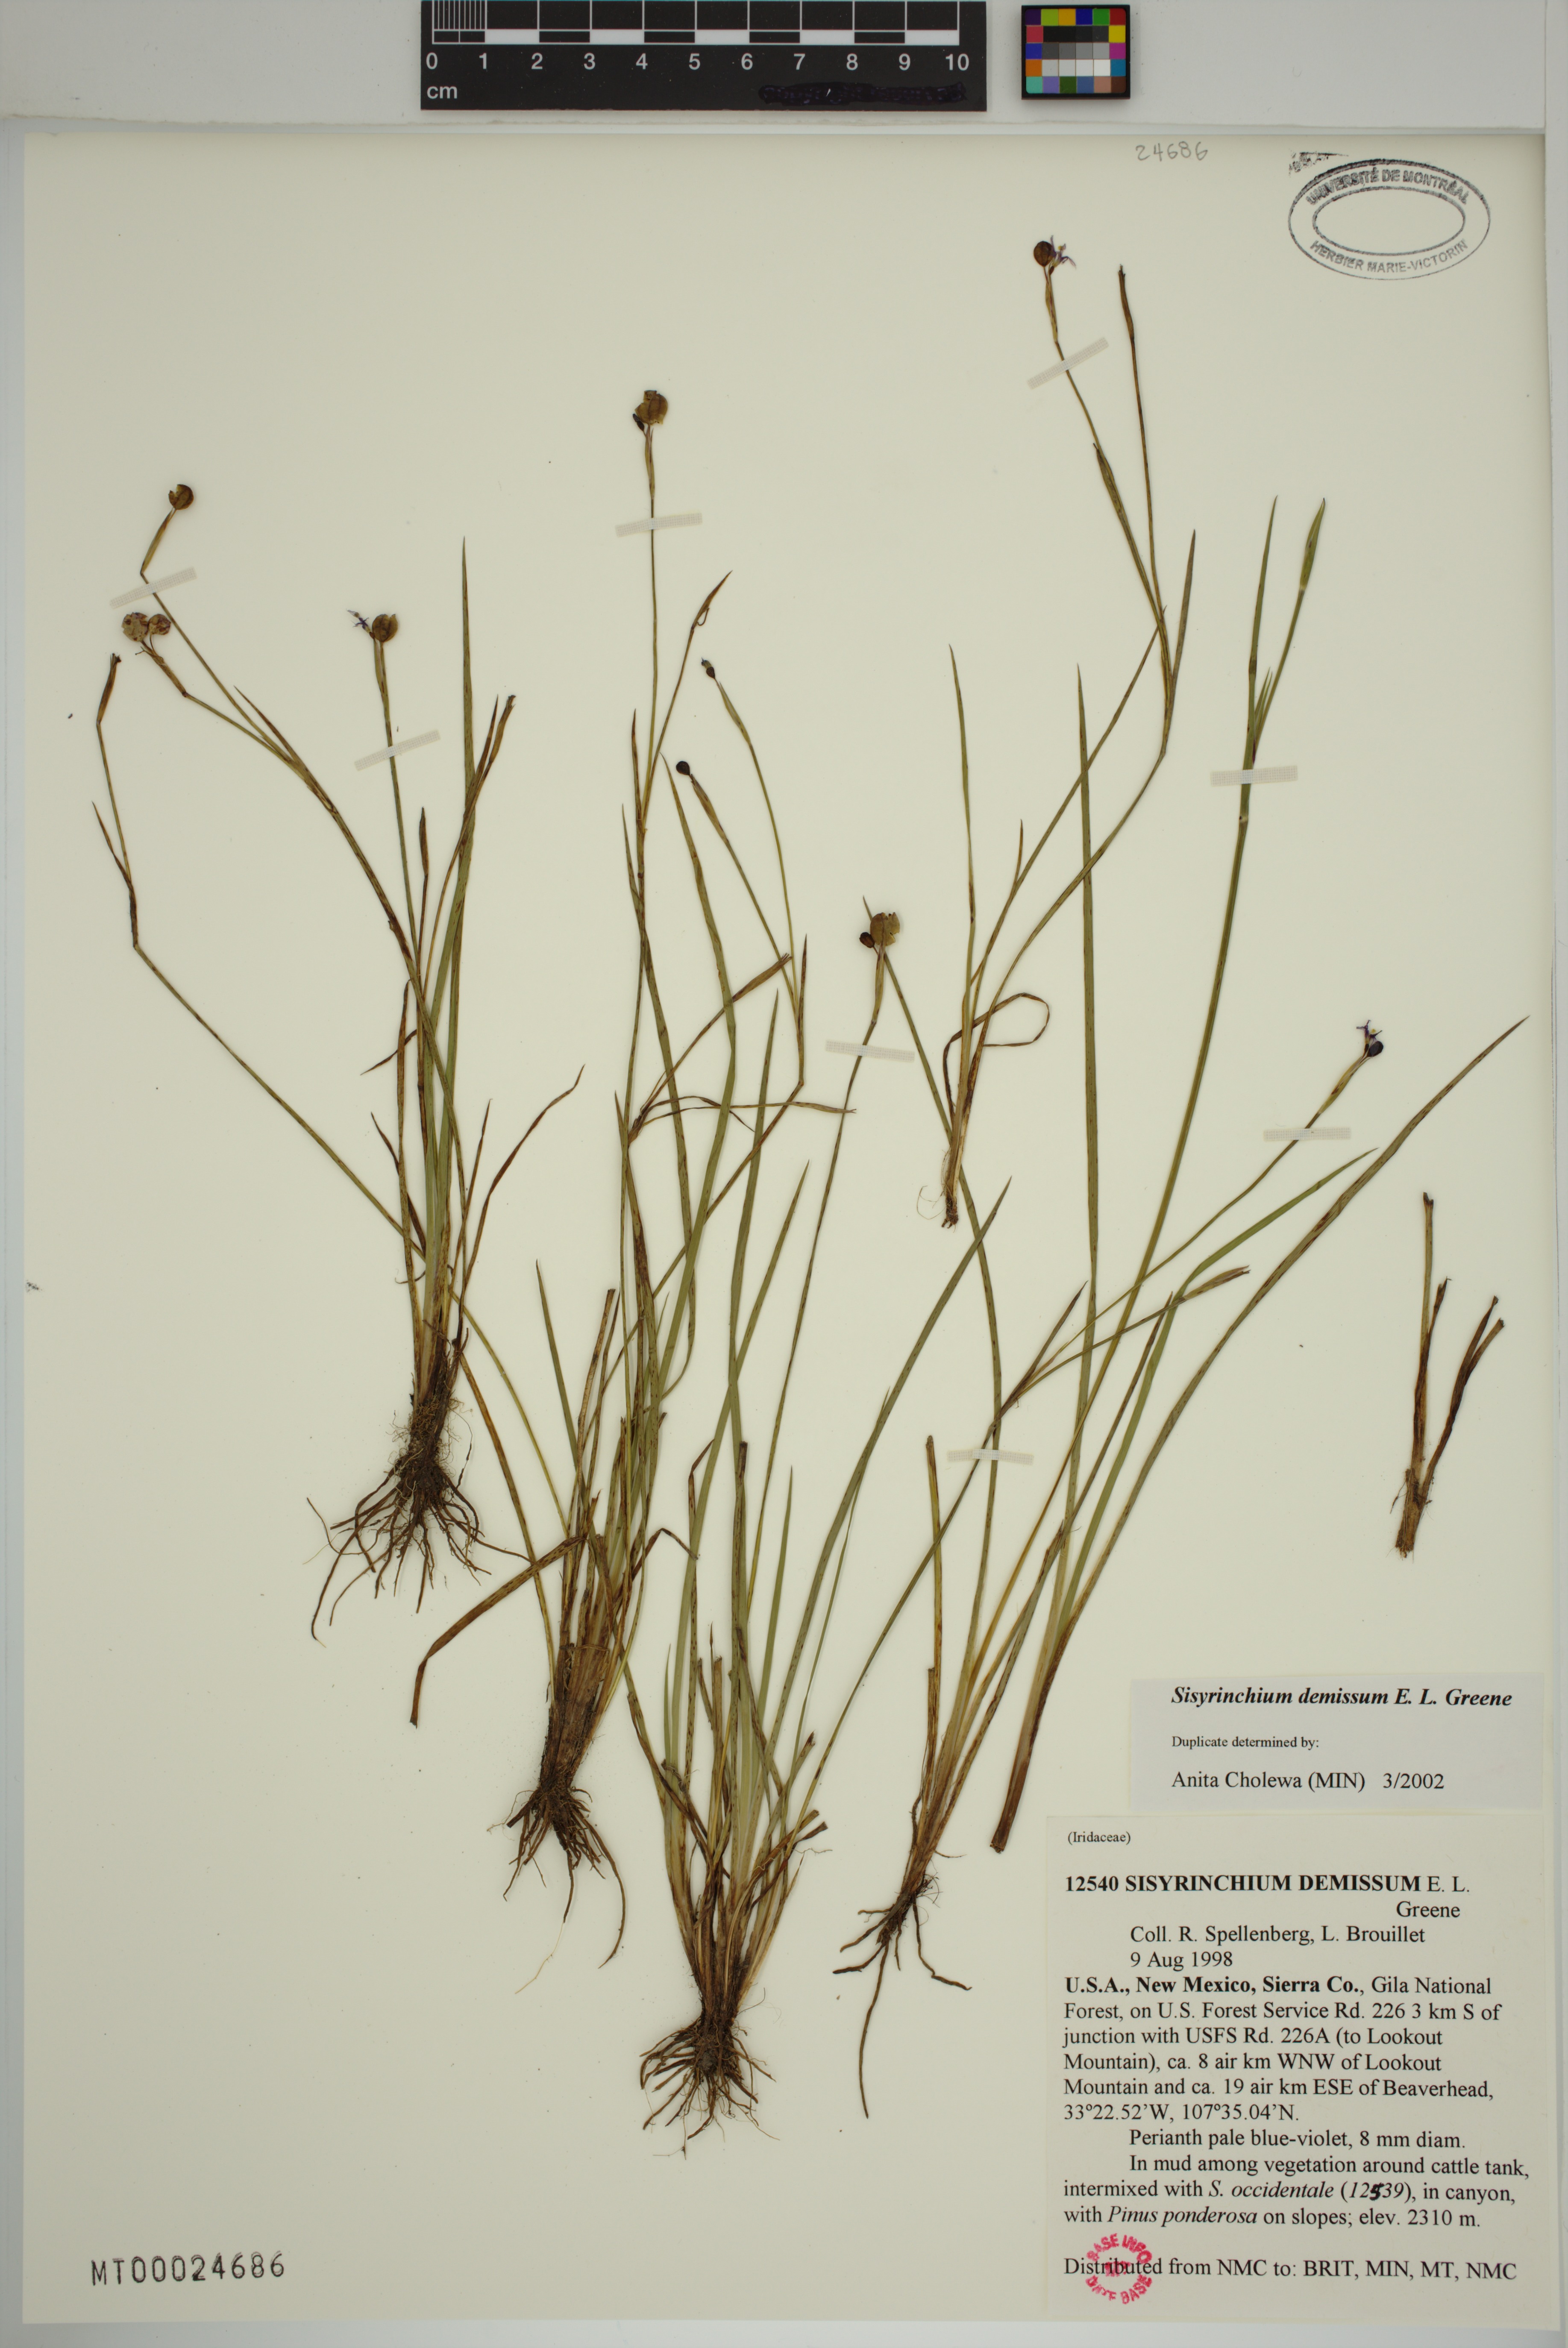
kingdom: Plantae
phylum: Tracheophyta
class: Liliopsida
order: Asparagales
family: Iridaceae
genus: Sisyrinchium
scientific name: Sisyrinchium demissum
